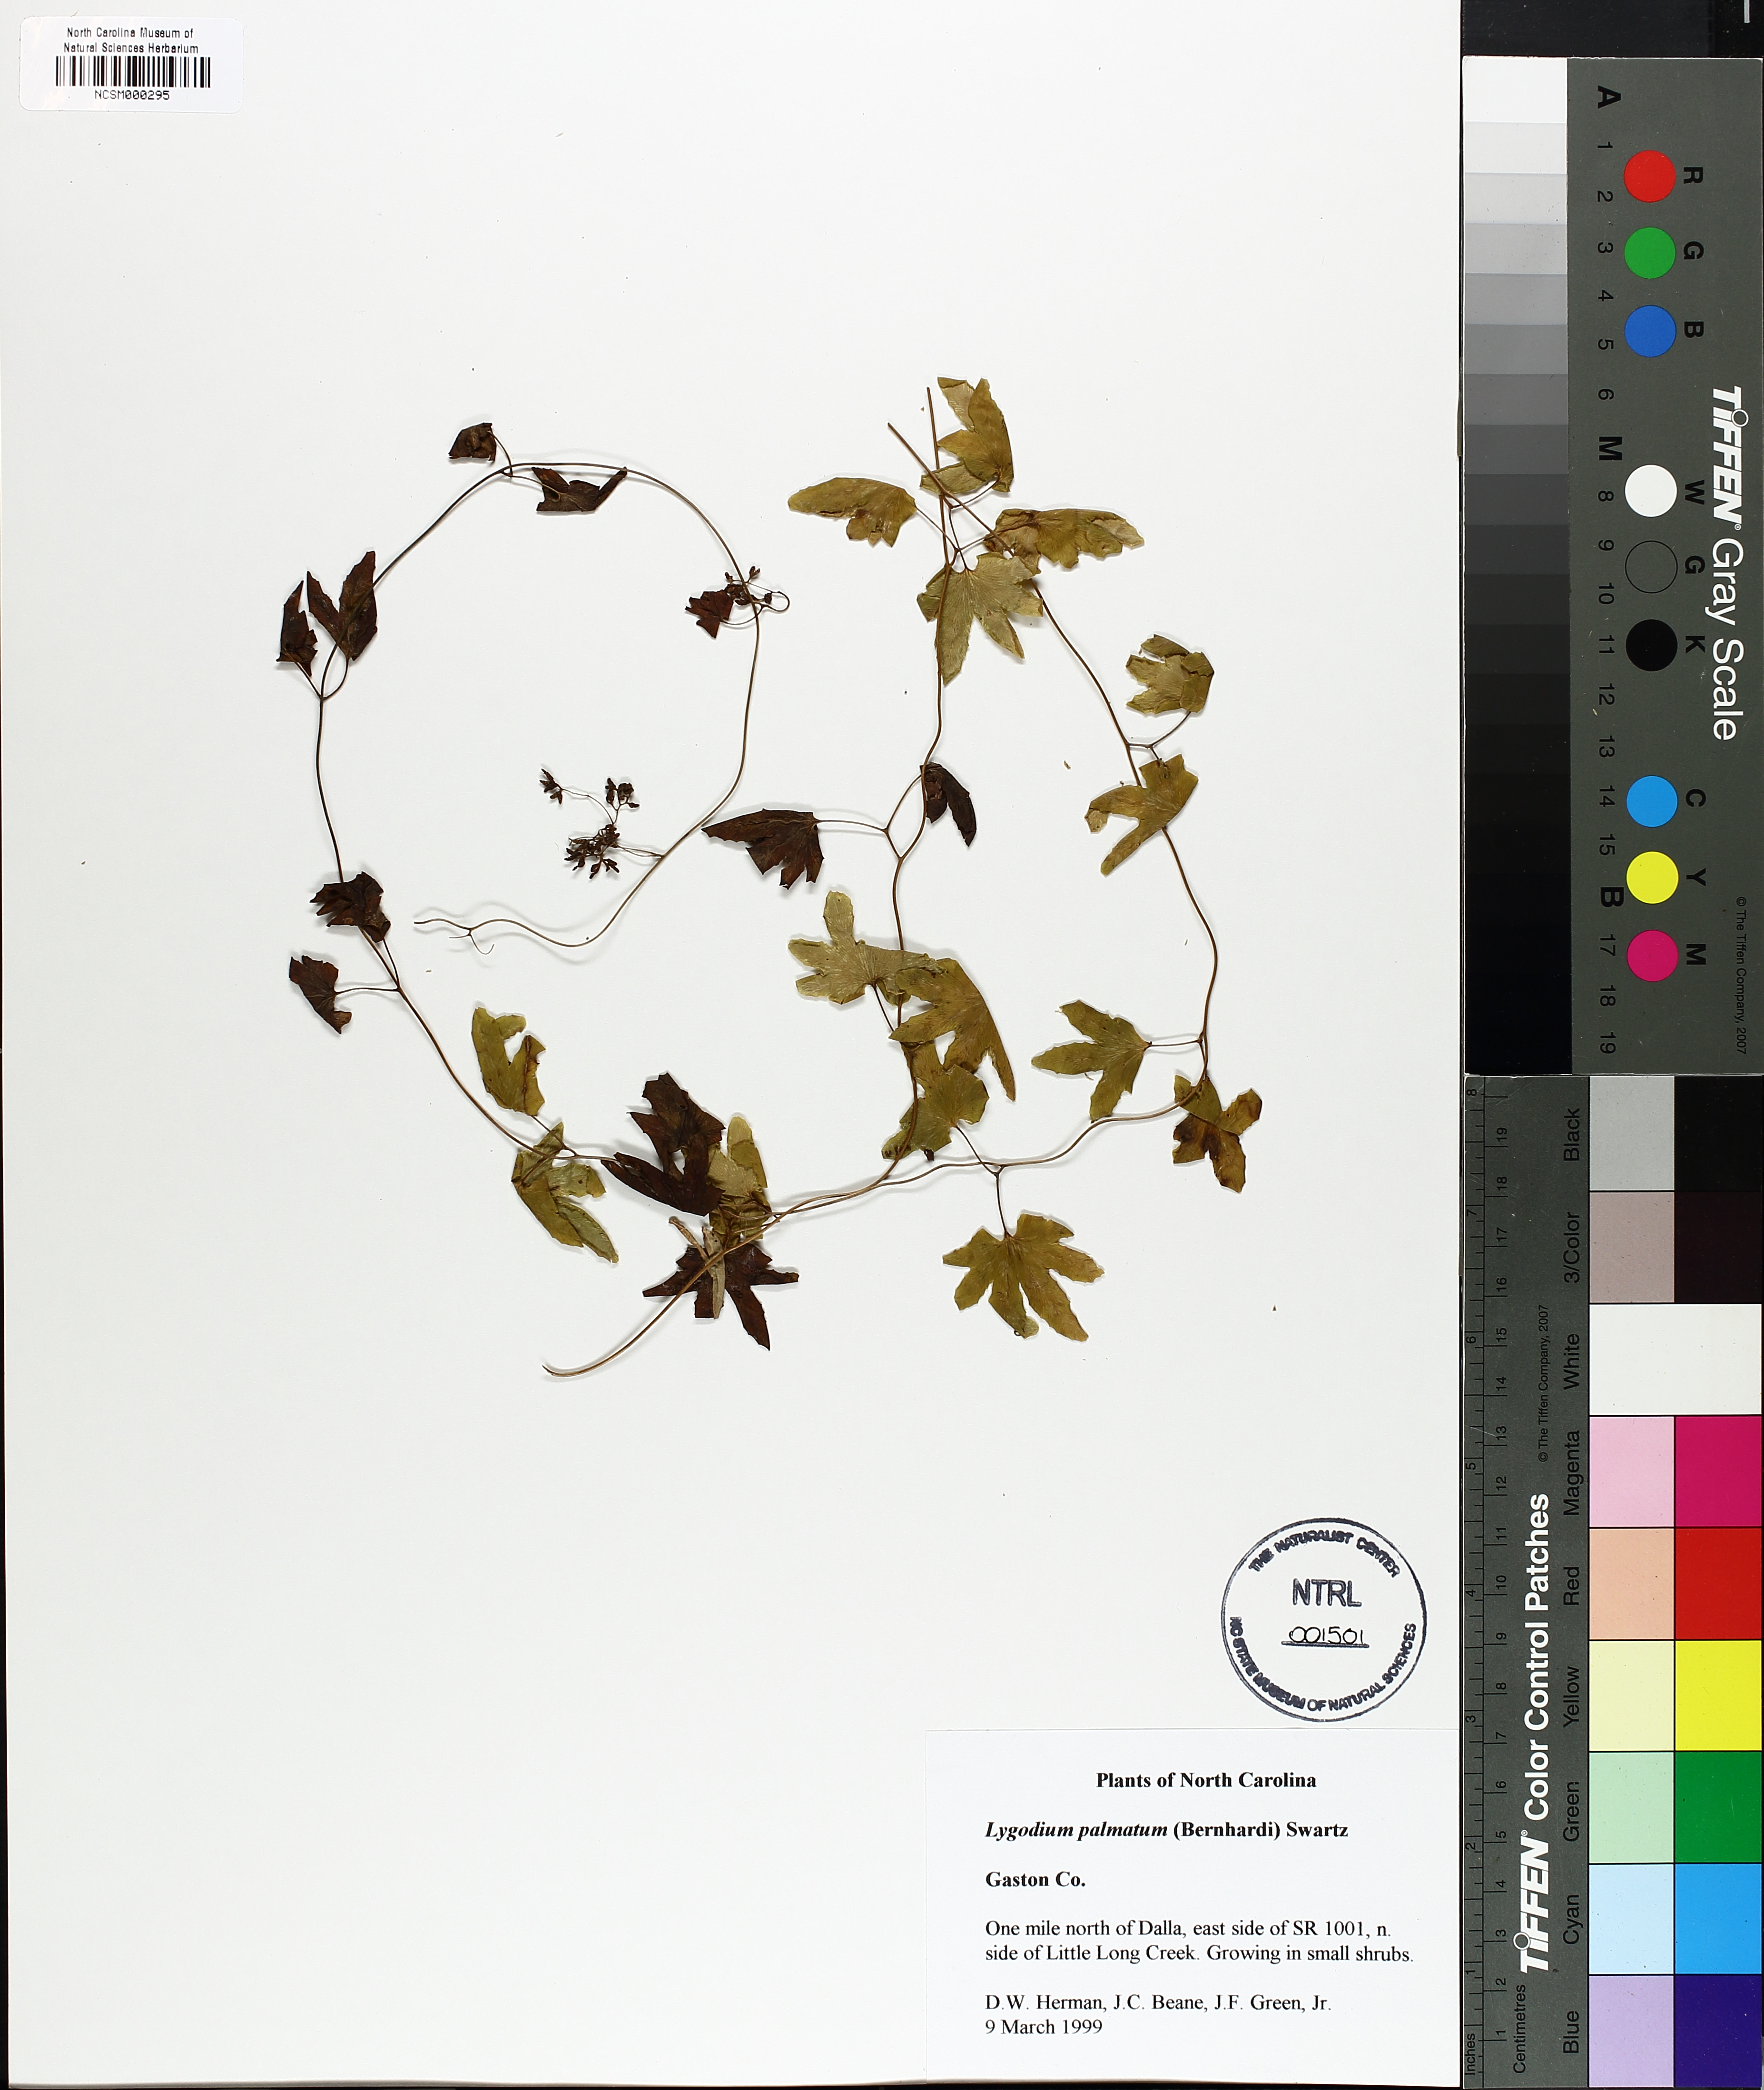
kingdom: Plantae
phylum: Tracheophyta
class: Polypodiopsida
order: Schizaeales
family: Lygodiaceae
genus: Lygodium
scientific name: Lygodium palmatum
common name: American climbing fern
